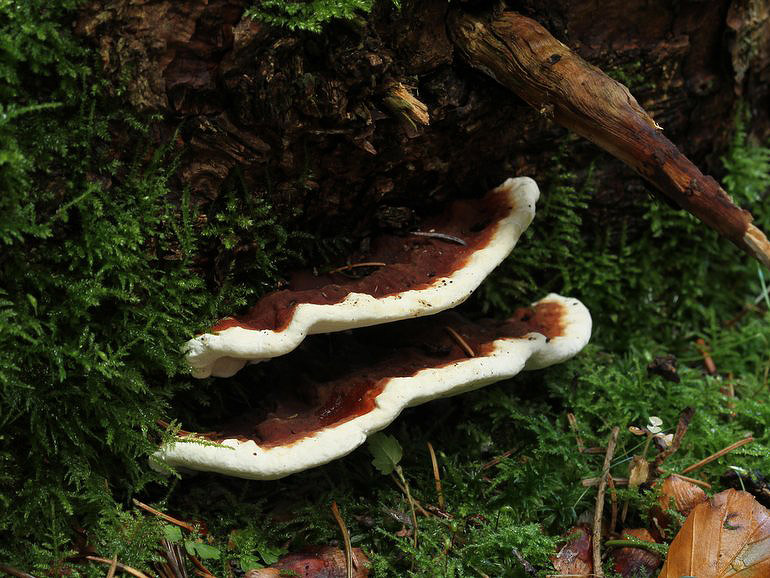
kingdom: Fungi
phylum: Basidiomycota
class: Agaricomycetes
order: Russulales
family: Bondarzewiaceae
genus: Heterobasidion
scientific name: Heterobasidion annosum
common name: almindelig rodfordærver
